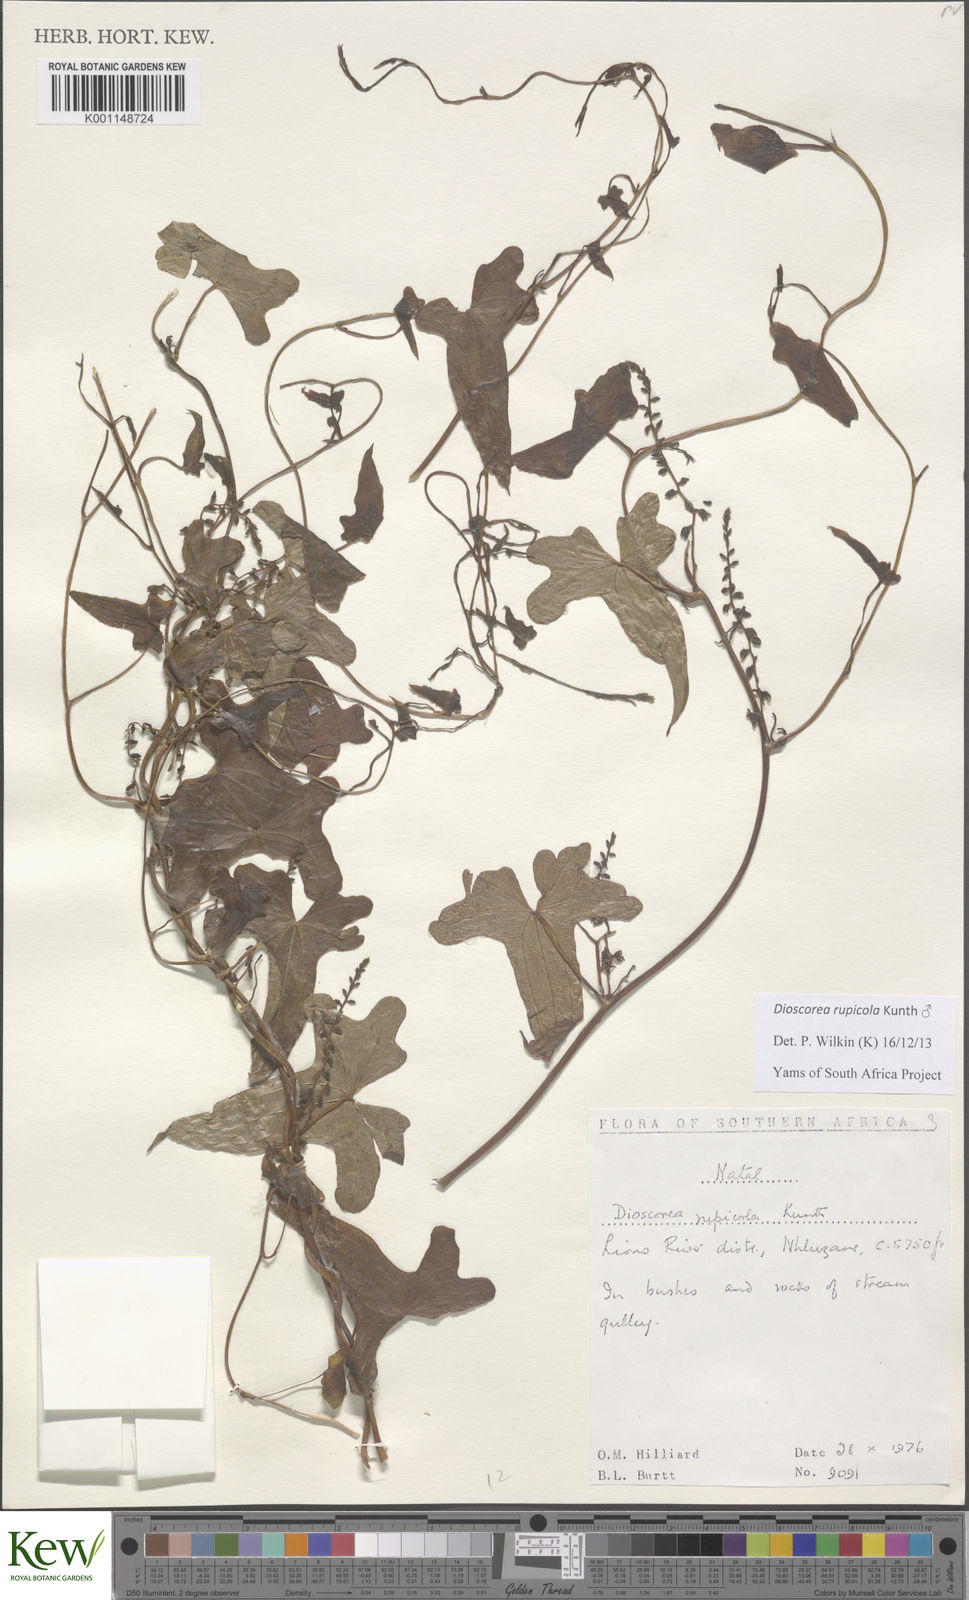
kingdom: Plantae
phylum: Tracheophyta
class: Liliopsida
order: Dioscoreales
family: Dioscoreaceae
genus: Dioscorea
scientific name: Dioscorea rupicola
